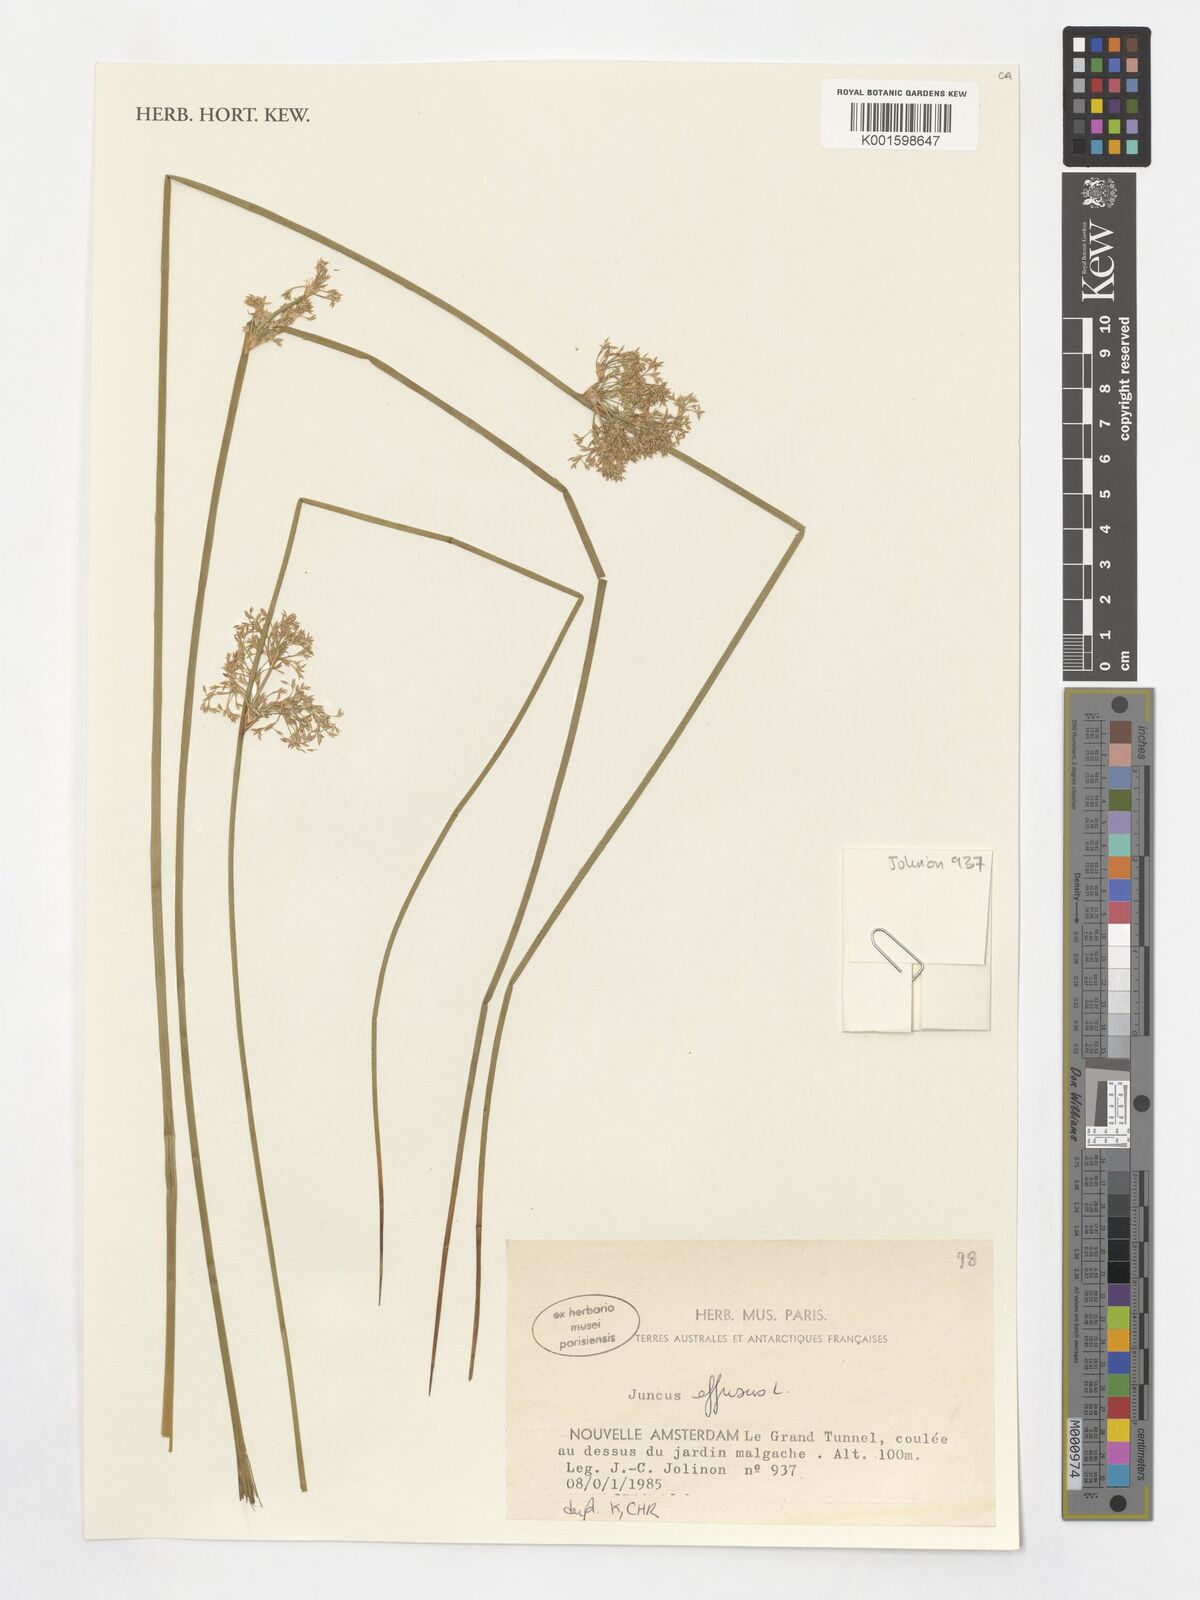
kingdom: Plantae
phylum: Tracheophyta
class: Liliopsida
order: Poales
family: Juncaceae
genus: Juncus
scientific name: Juncus effusus
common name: Soft rush
